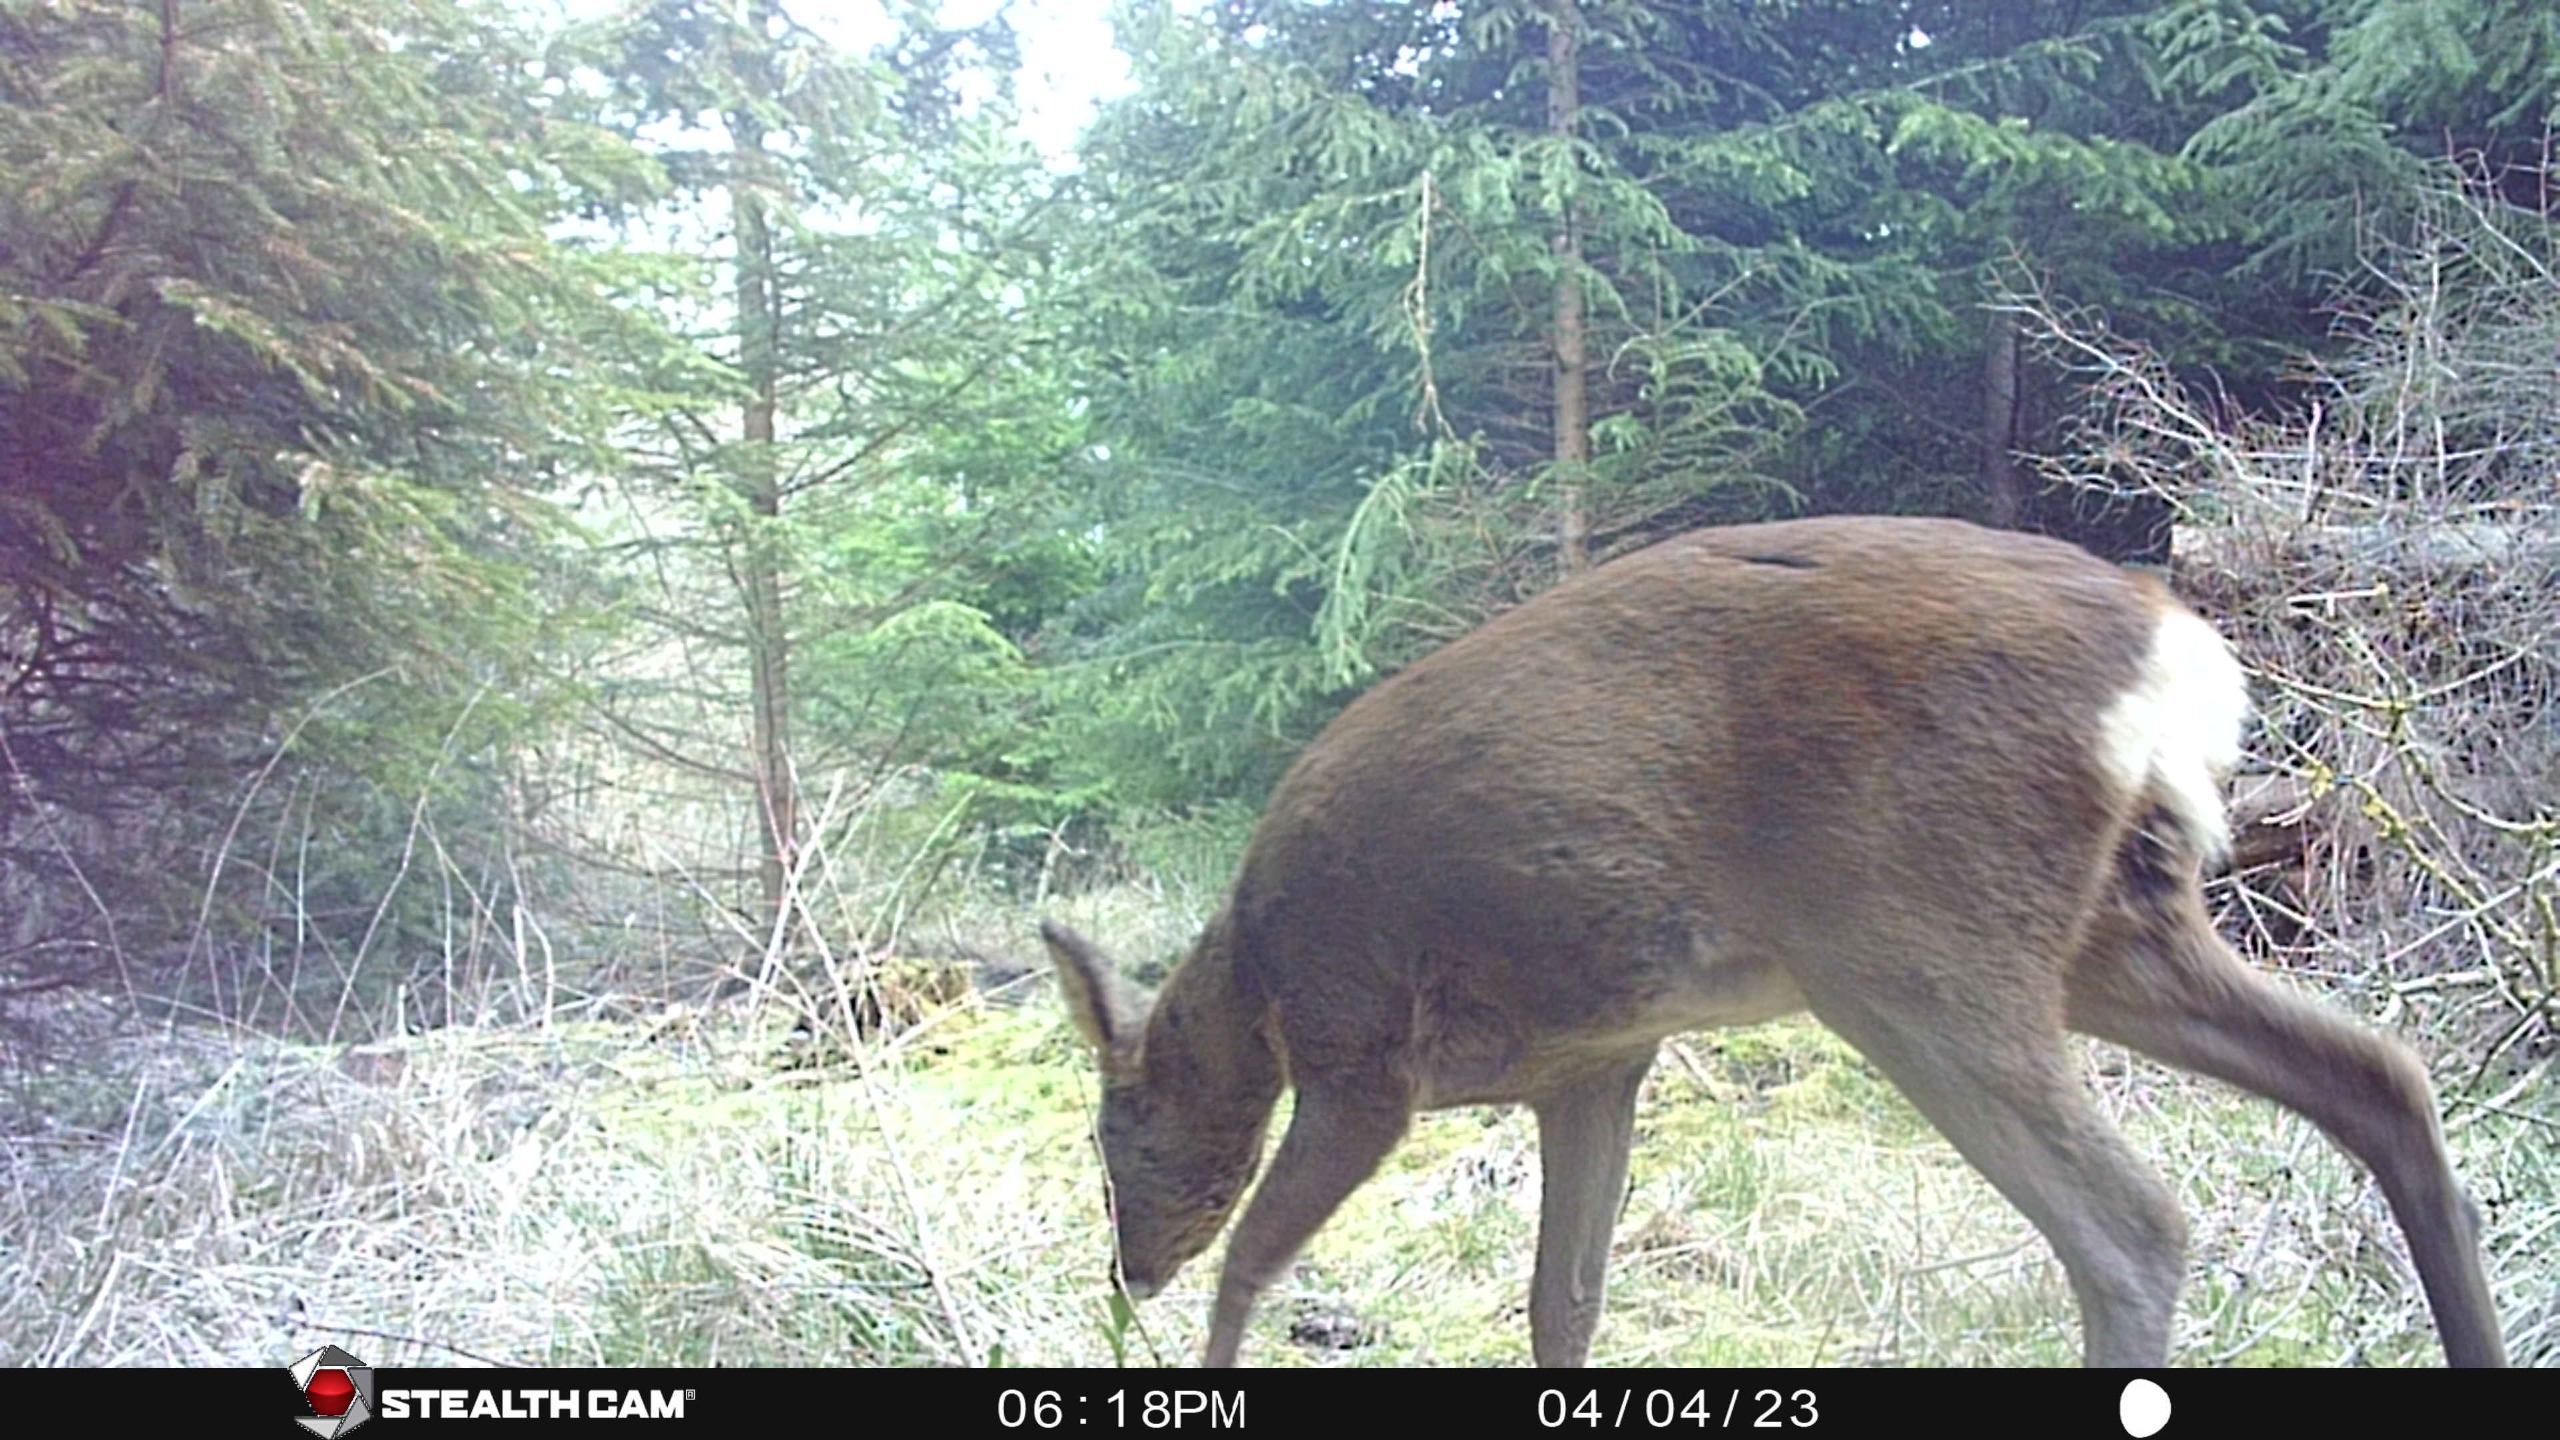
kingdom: Animalia
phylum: Chordata
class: Mammalia
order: Artiodactyla
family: Cervidae
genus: Capreolus
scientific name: Capreolus capreolus
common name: Rådyr
